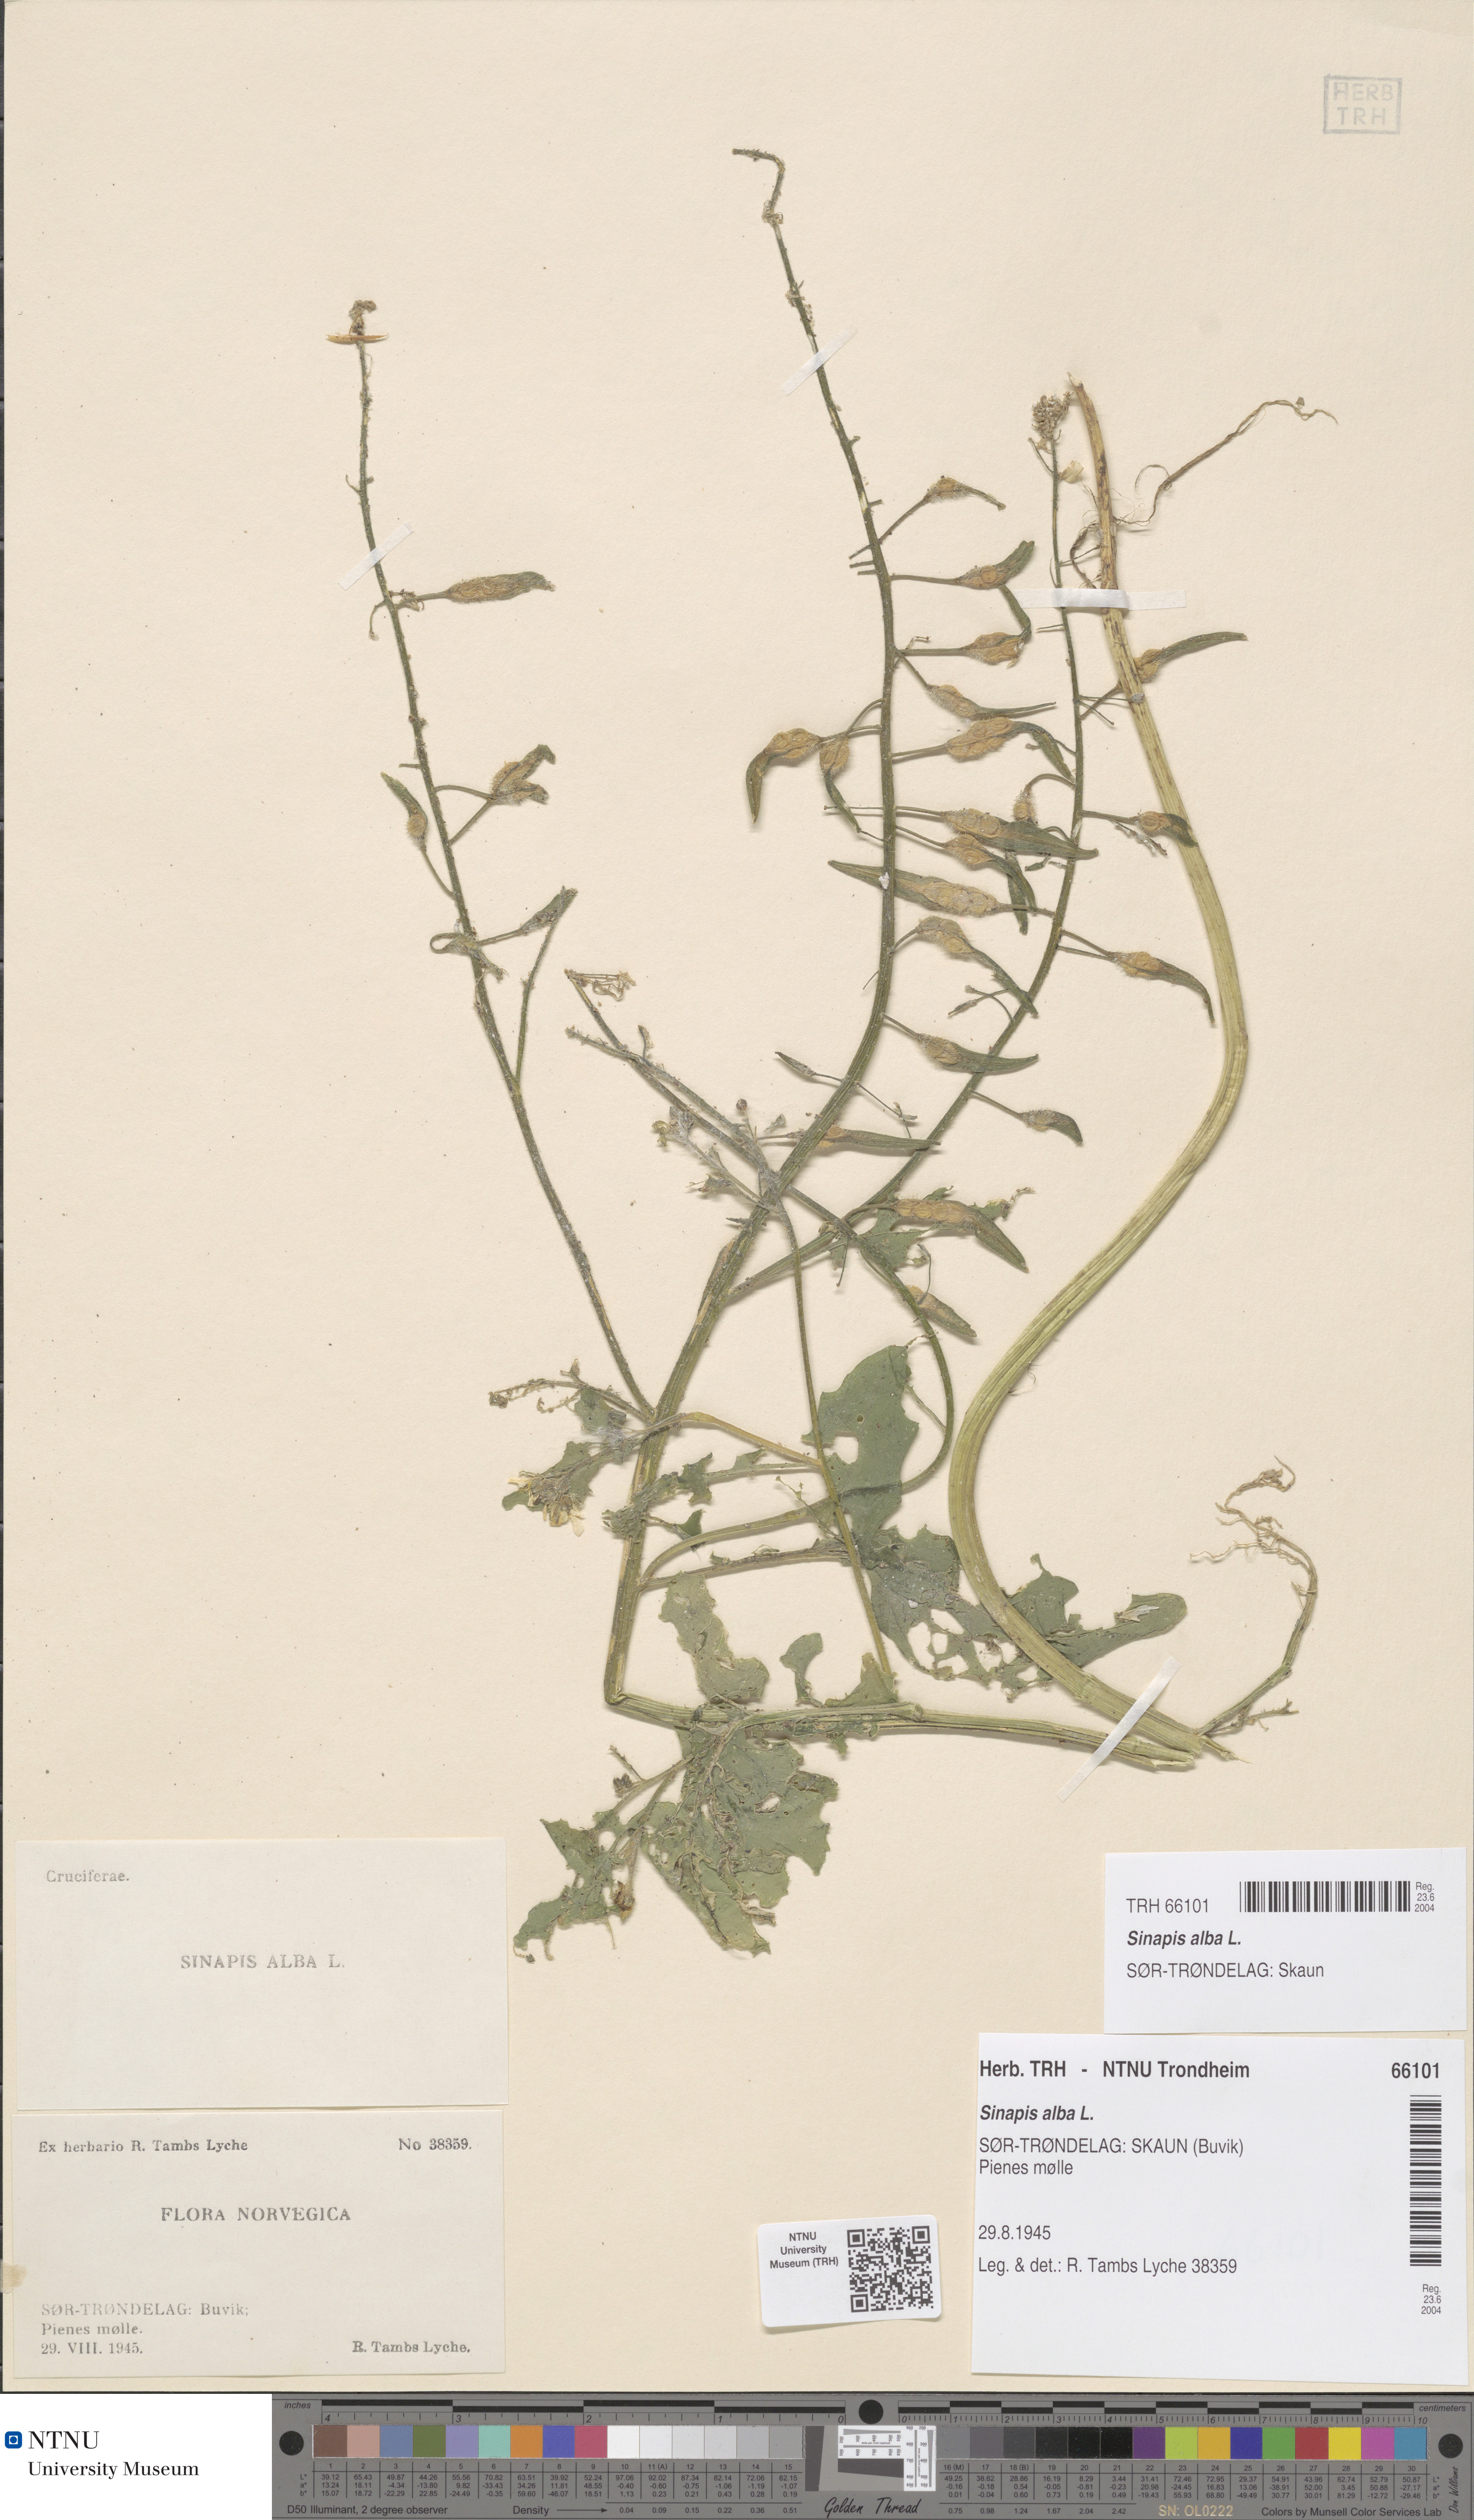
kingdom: Plantae
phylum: Tracheophyta
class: Magnoliopsida
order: Brassicales
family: Brassicaceae
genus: Sinapis
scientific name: Sinapis alba
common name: White mustard
